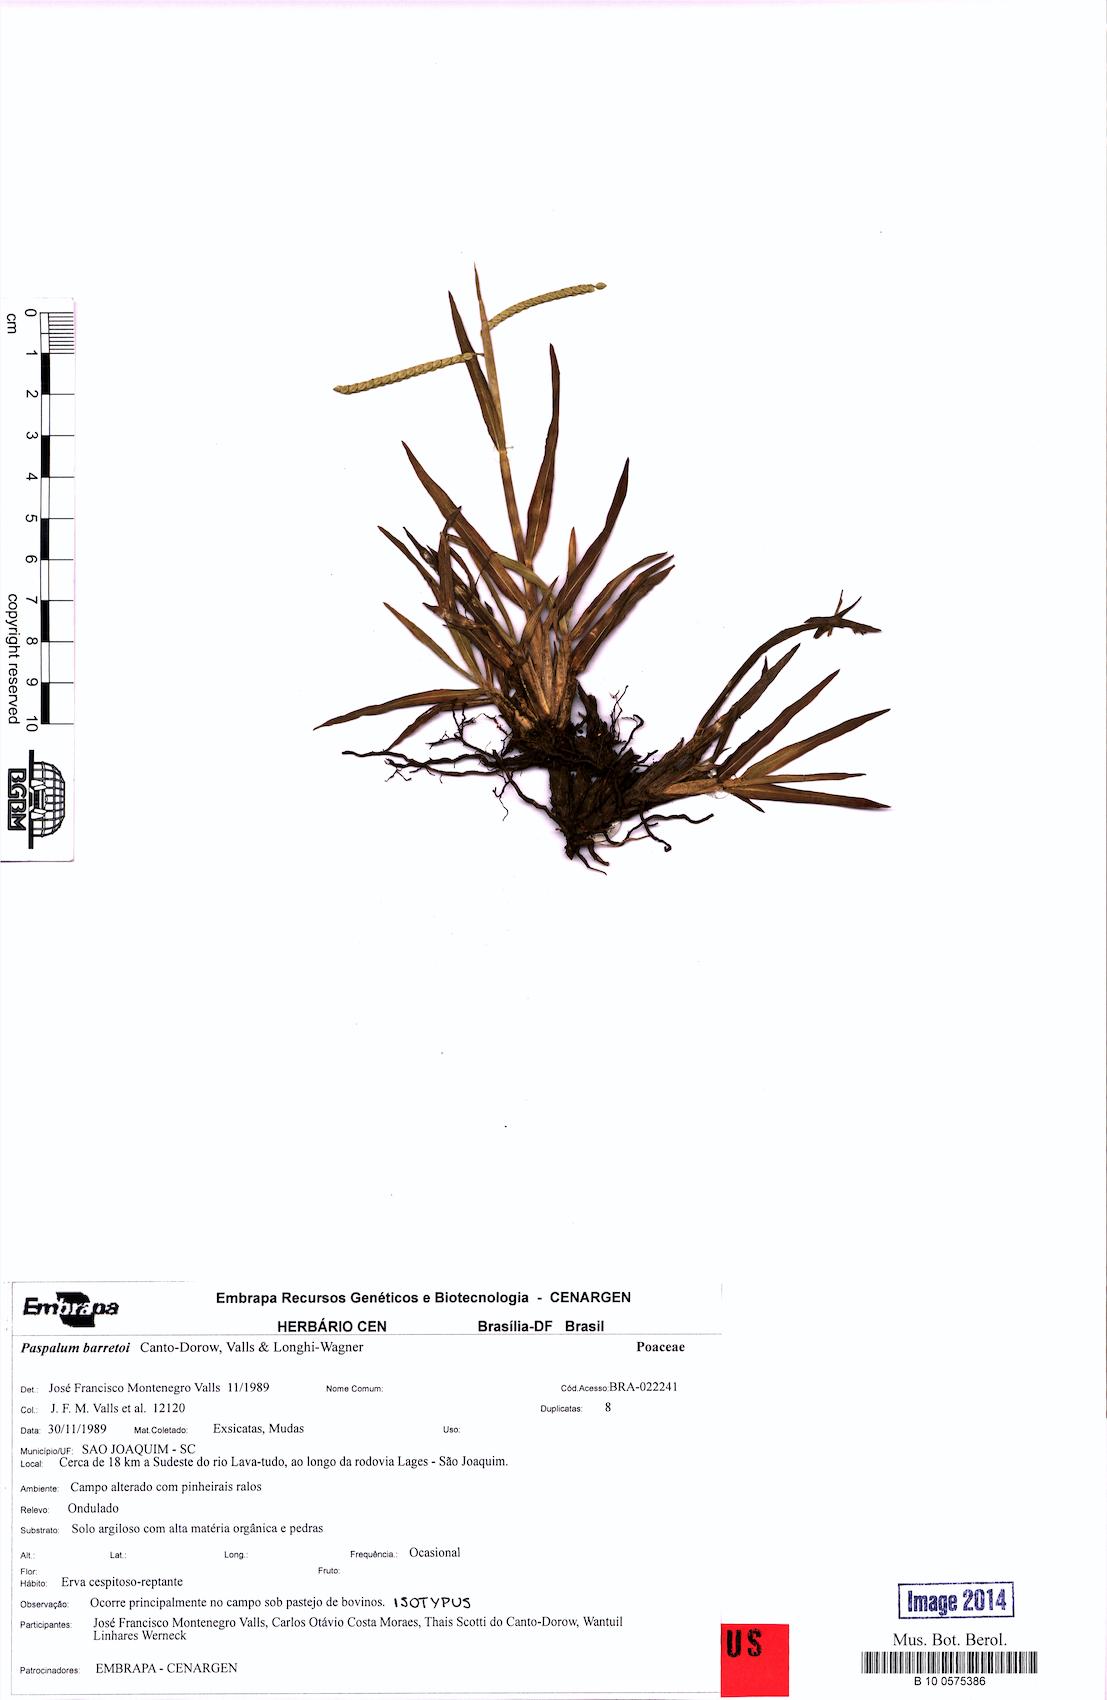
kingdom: Plantae
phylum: Tracheophyta
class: Liliopsida
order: Poales
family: Poaceae
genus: Paspalum
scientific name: Paspalum minus
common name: Matted paspalum
